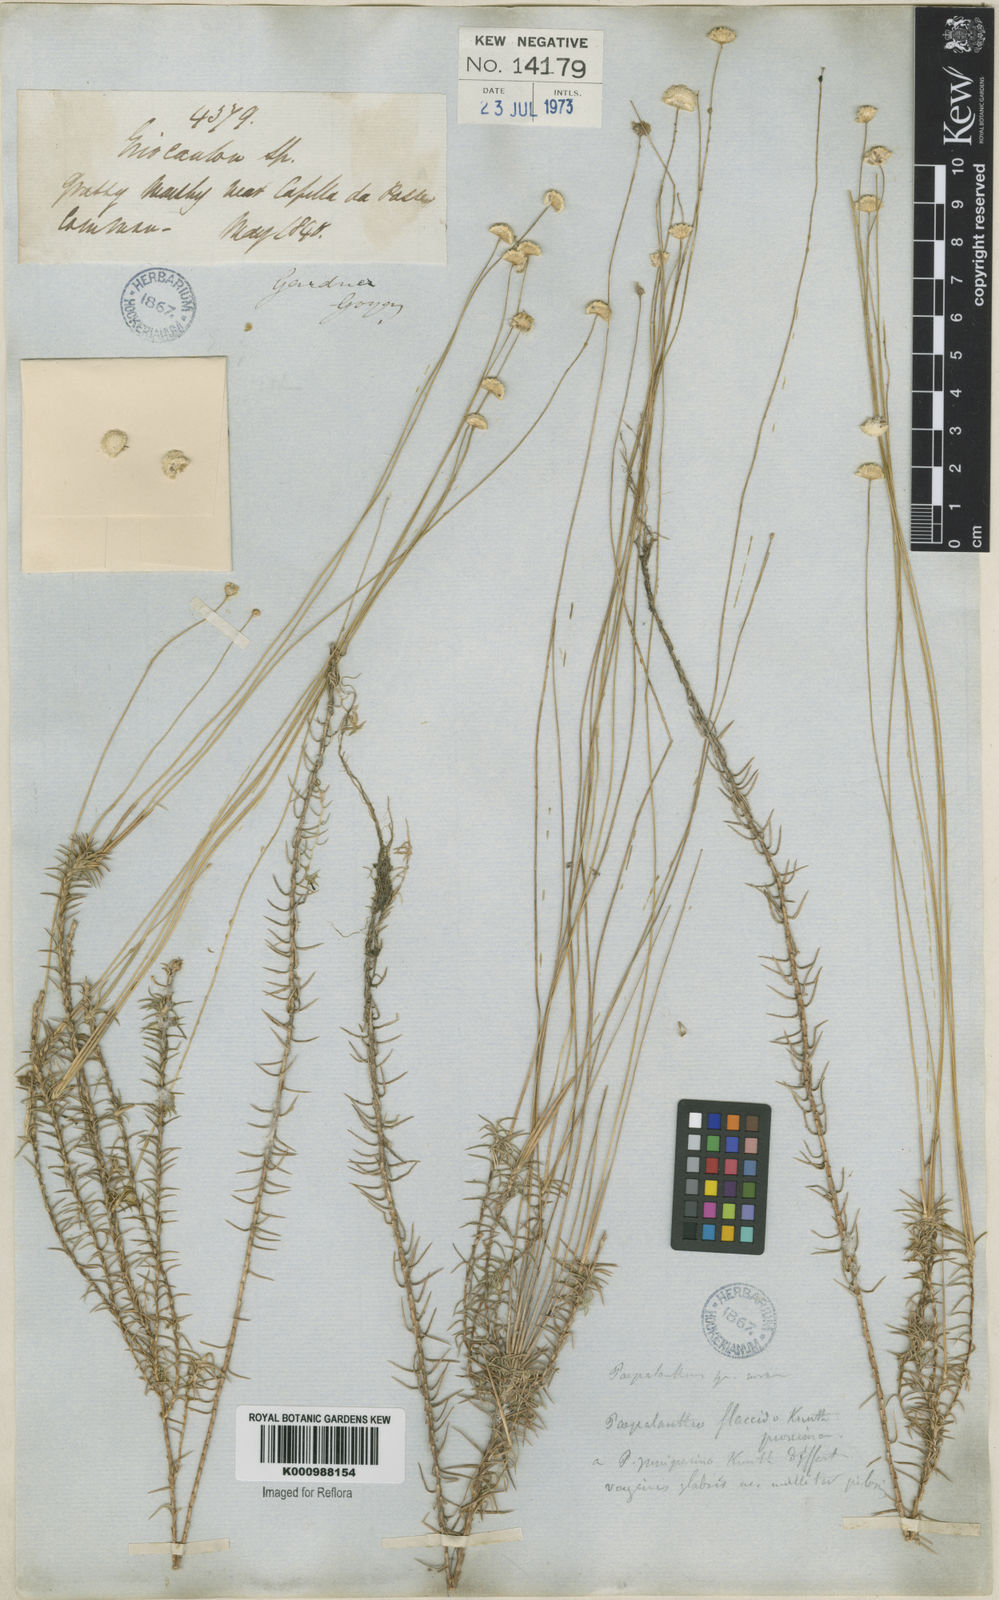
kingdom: Plantae
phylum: Tracheophyta
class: Liliopsida
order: Poales
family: Eriocaulaceae
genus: Paepalanthus
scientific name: Paepalanthus flaccidus
